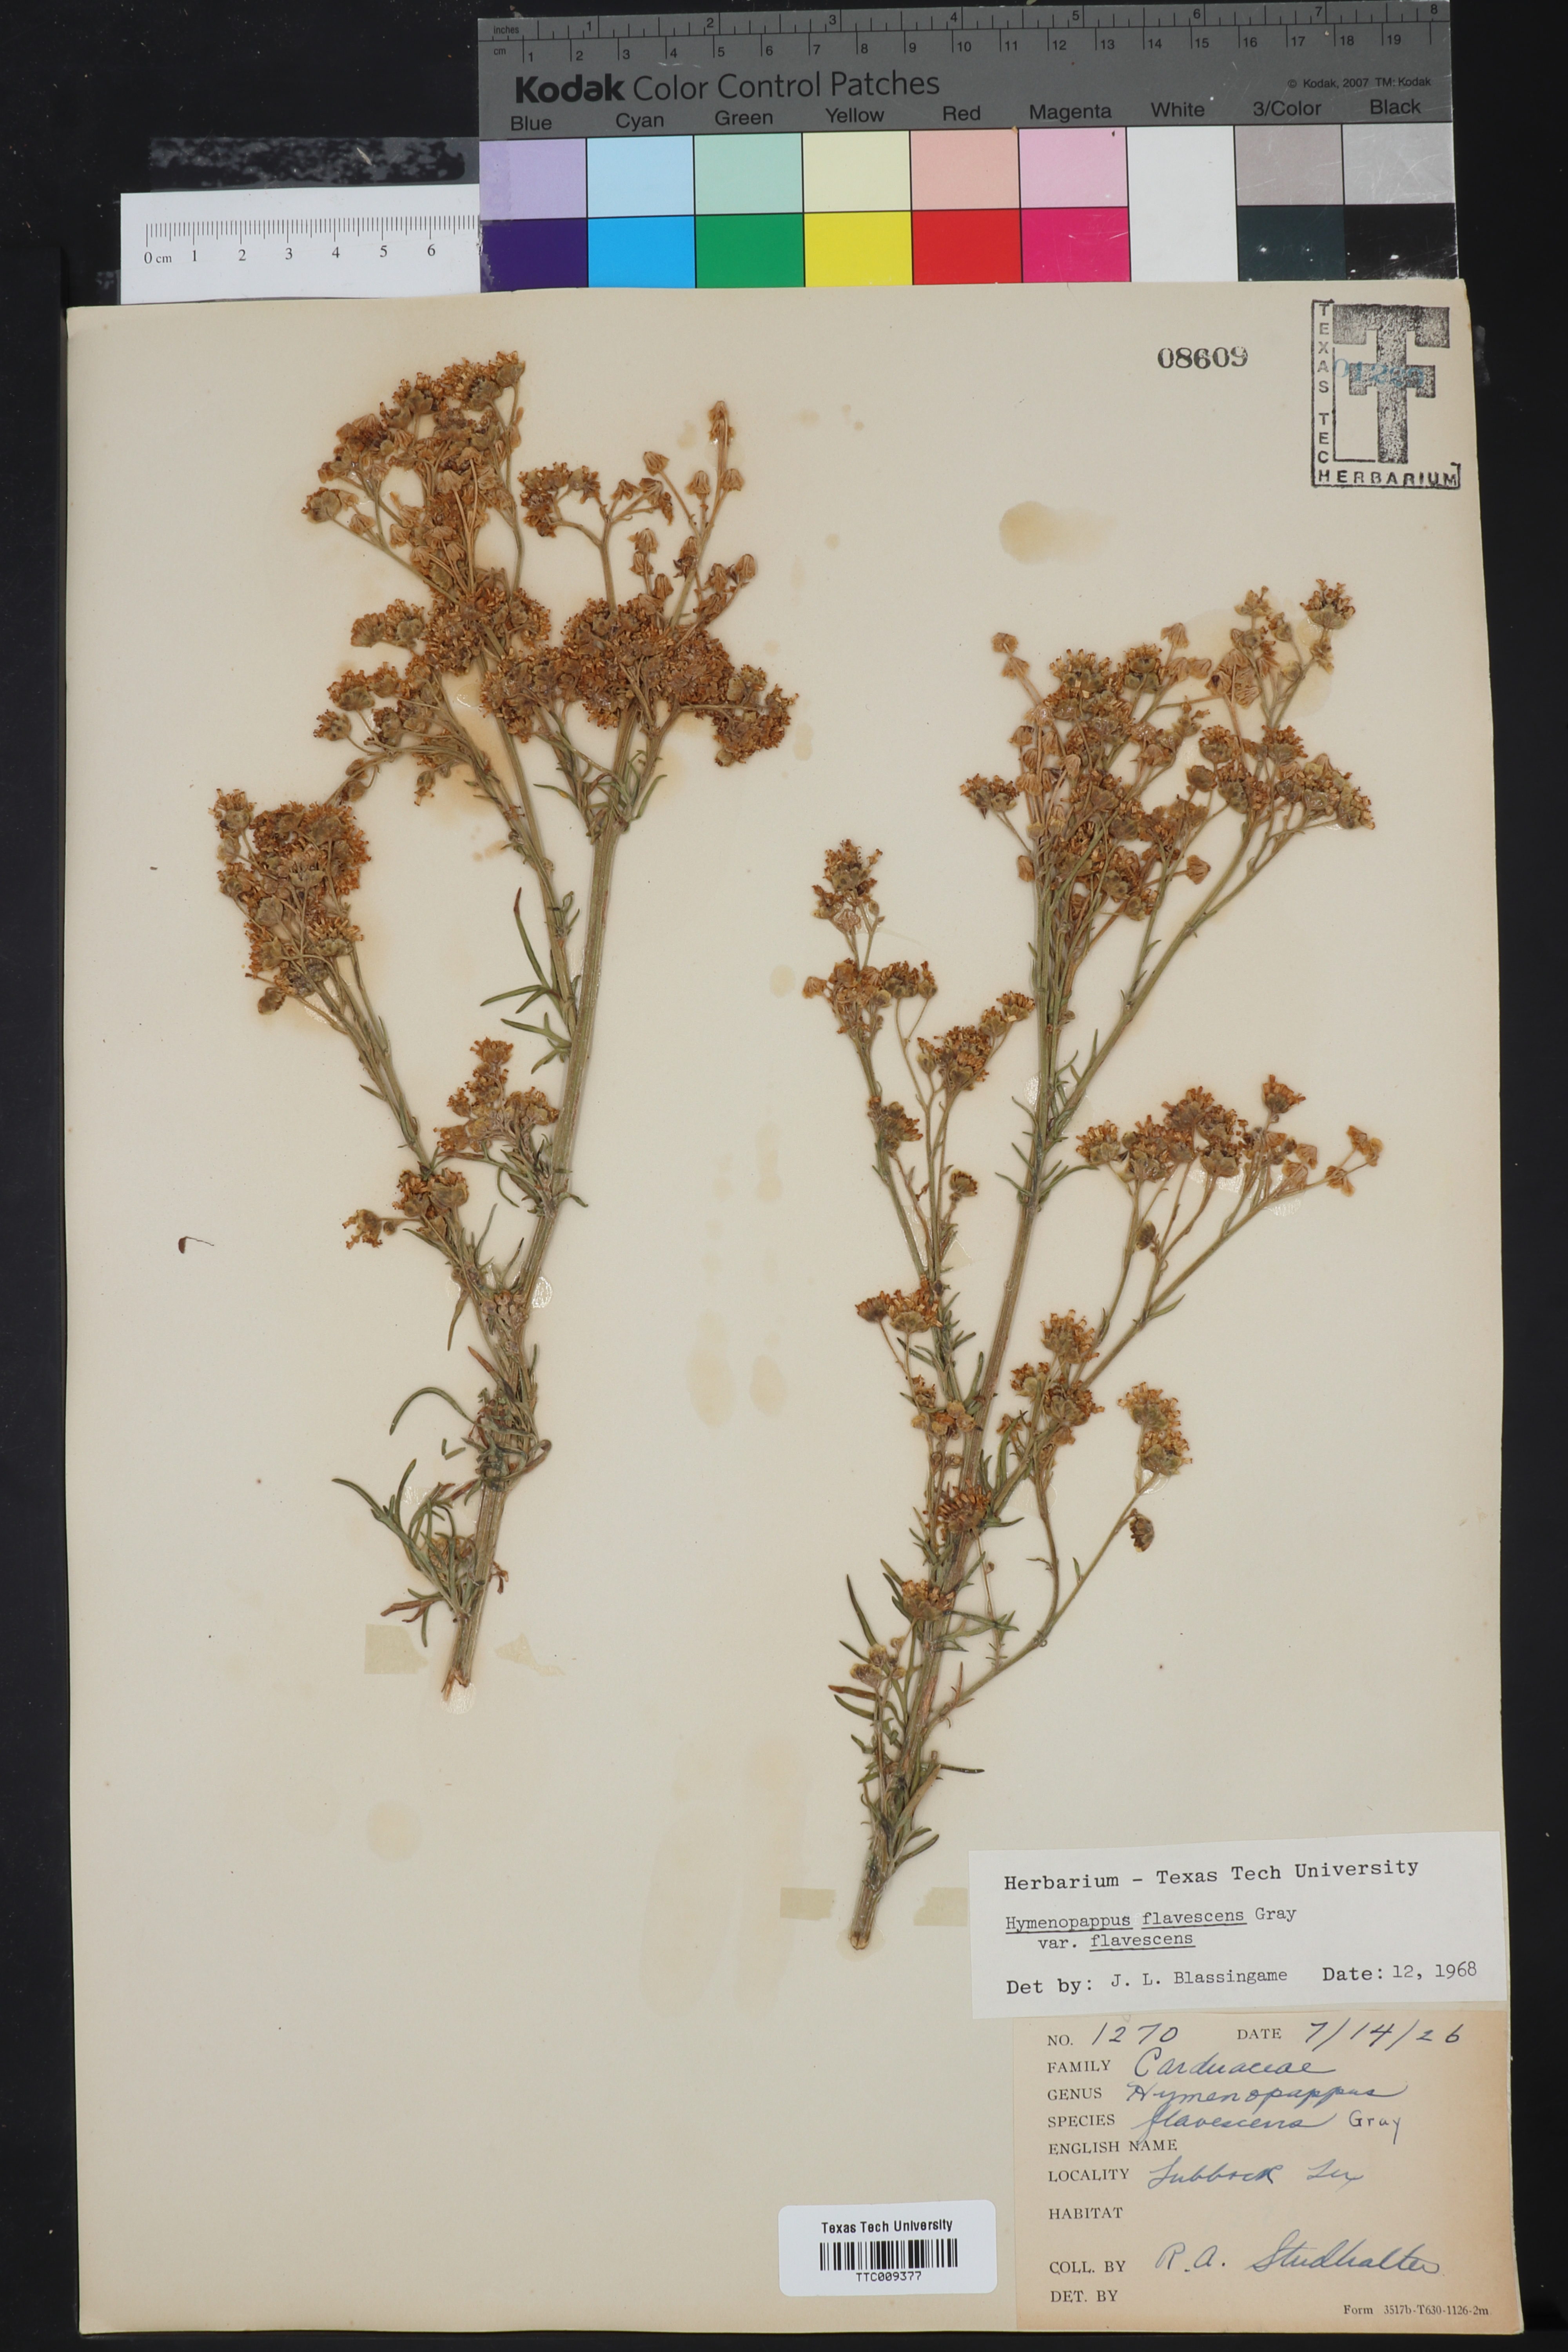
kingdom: Plantae
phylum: Tracheophyta
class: Magnoliopsida
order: Asterales
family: Asteraceae
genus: Hymenopappus
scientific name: Hymenopappus flavescens
